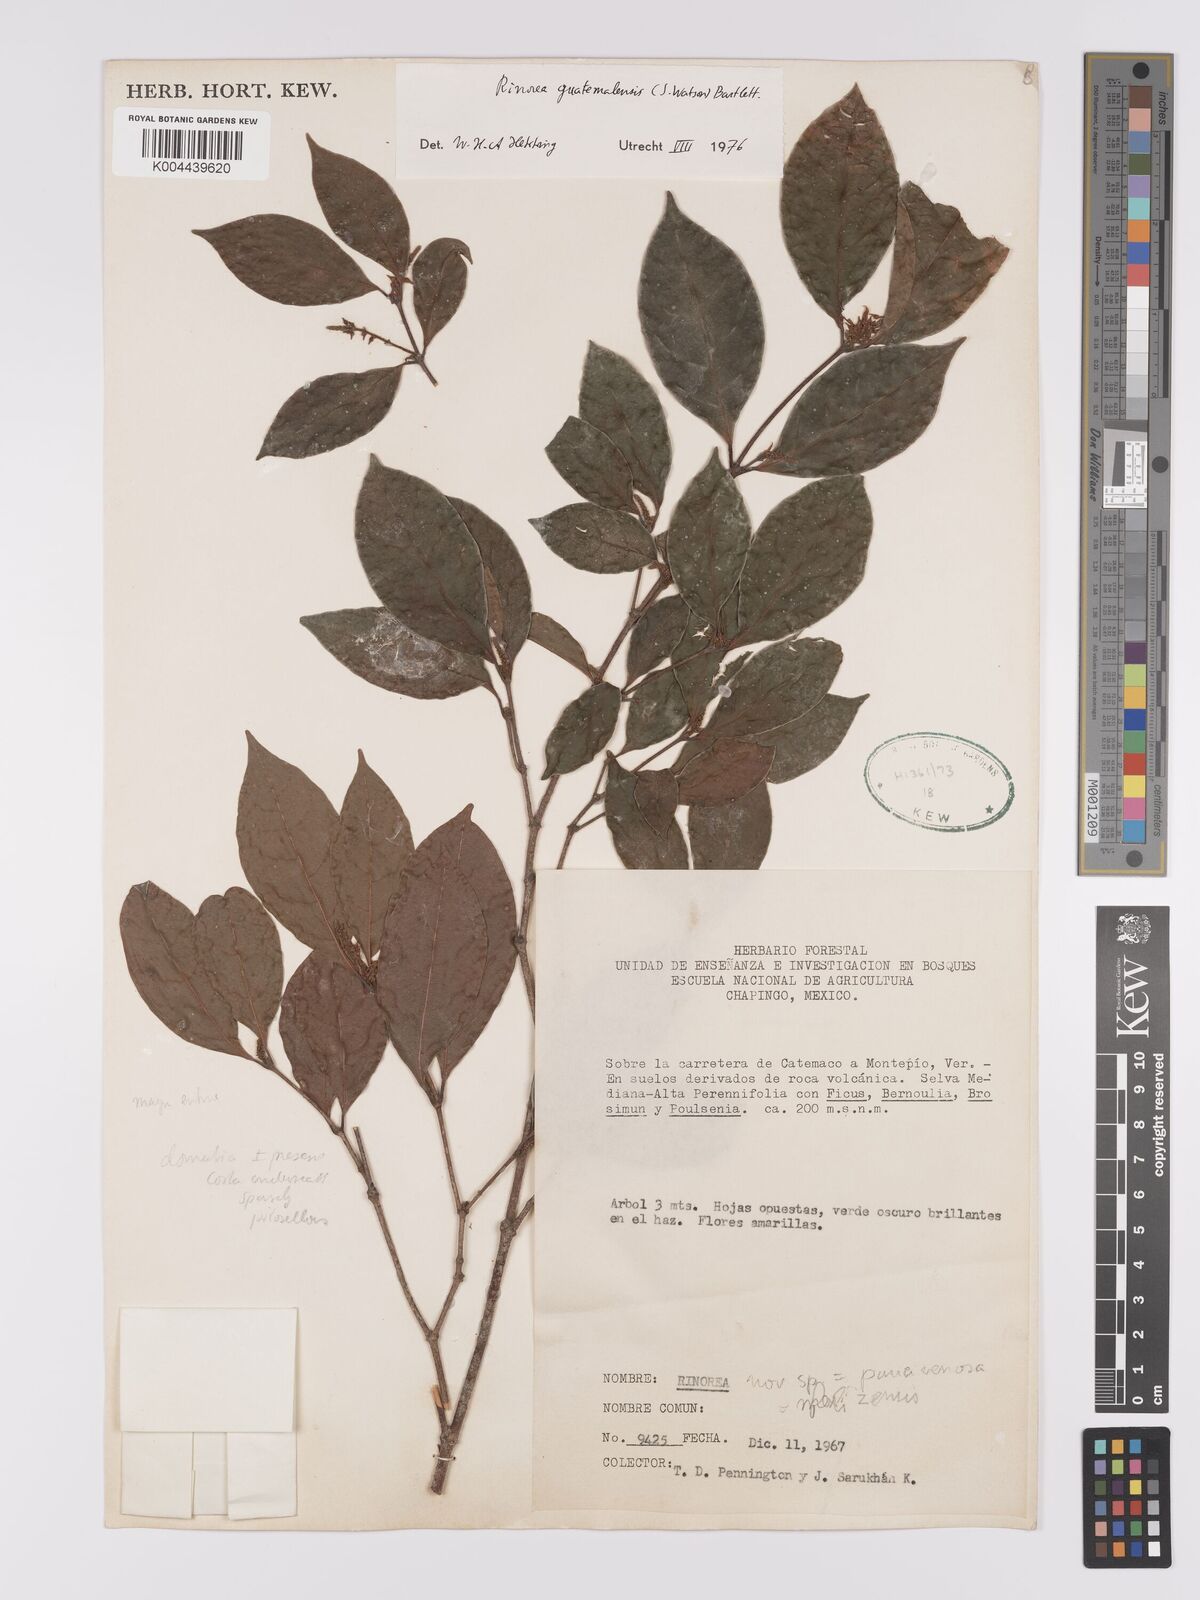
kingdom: Plantae
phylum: Tracheophyta
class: Magnoliopsida
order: Malpighiales
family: Violaceae
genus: Rinorea
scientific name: Rinorea guatemalensis
